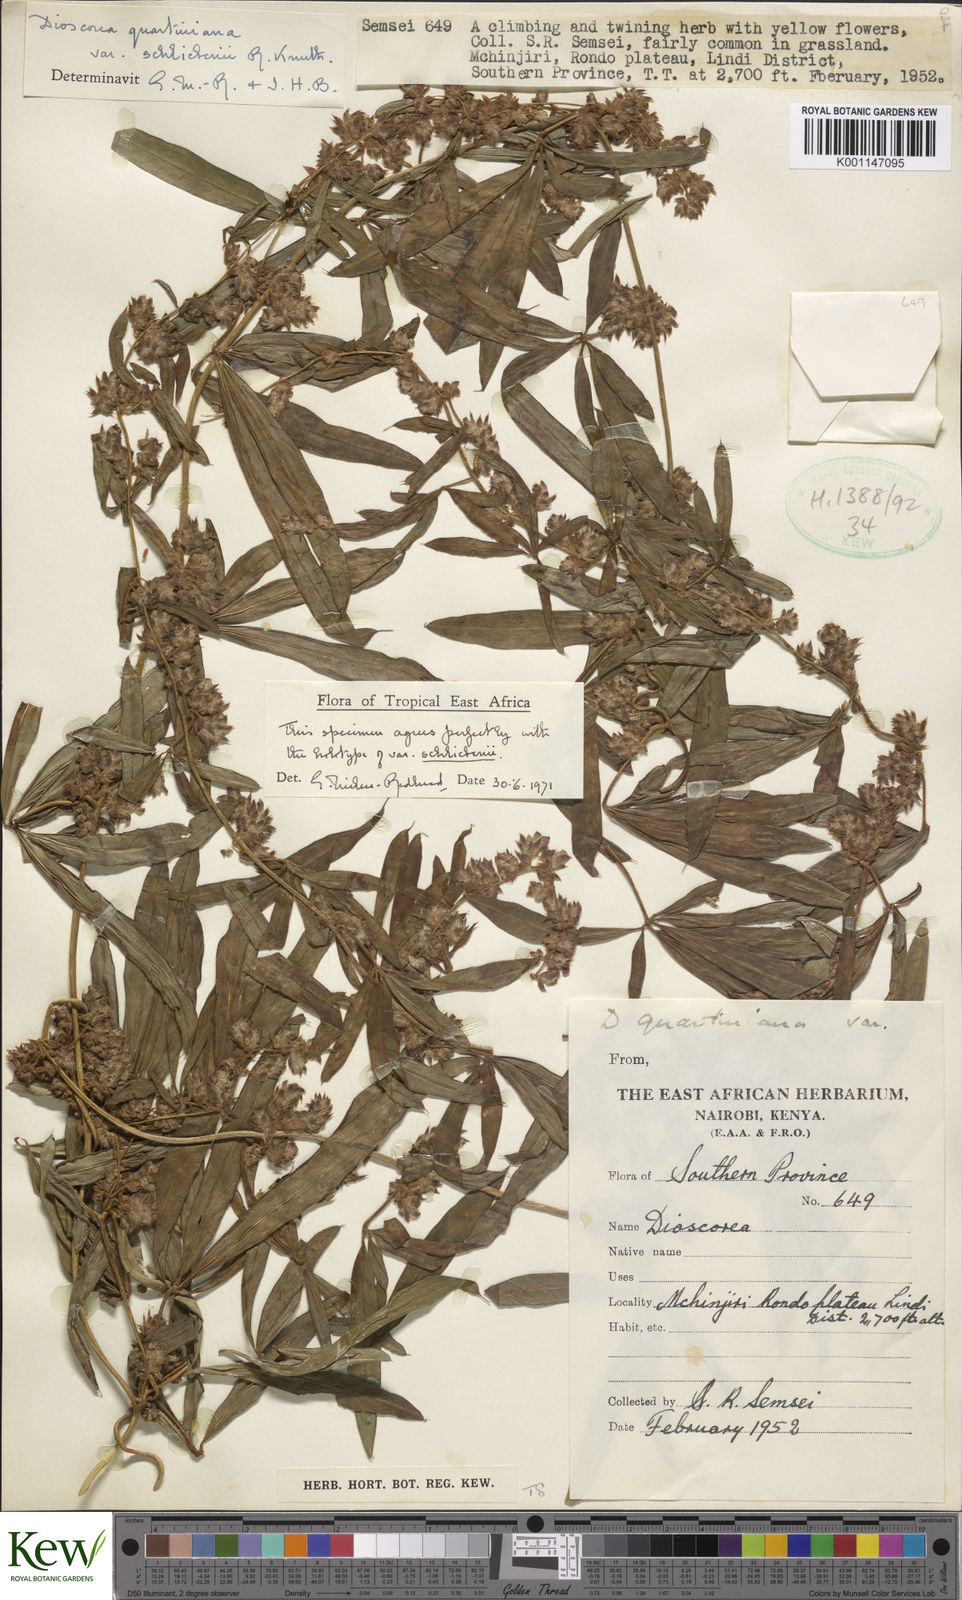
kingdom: Plantae
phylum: Tracheophyta
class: Liliopsida
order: Dioscoreales
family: Dioscoreaceae
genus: Dioscorea
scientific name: Dioscorea quartiniana
